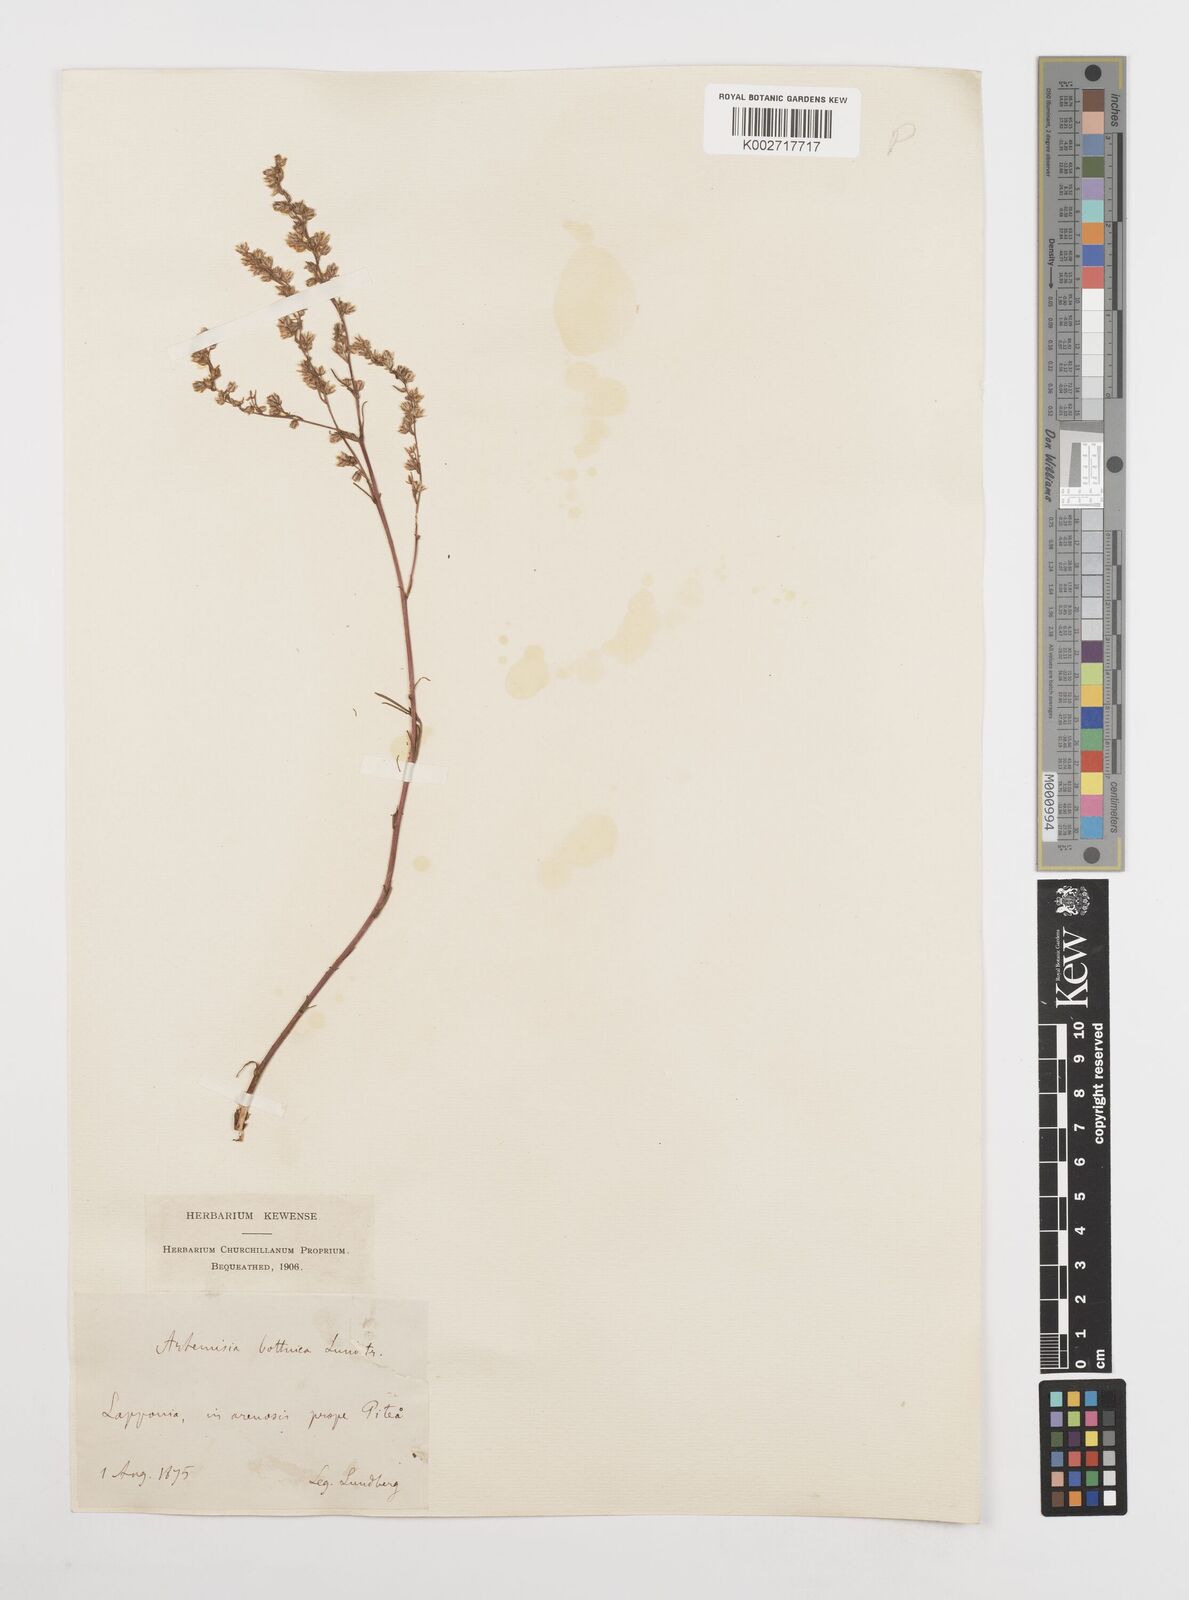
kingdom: Plantae
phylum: Tracheophyta
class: Magnoliopsida
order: Asterales
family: Asteraceae
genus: Artemisia
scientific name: Artemisia campestris
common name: Field wormwood
